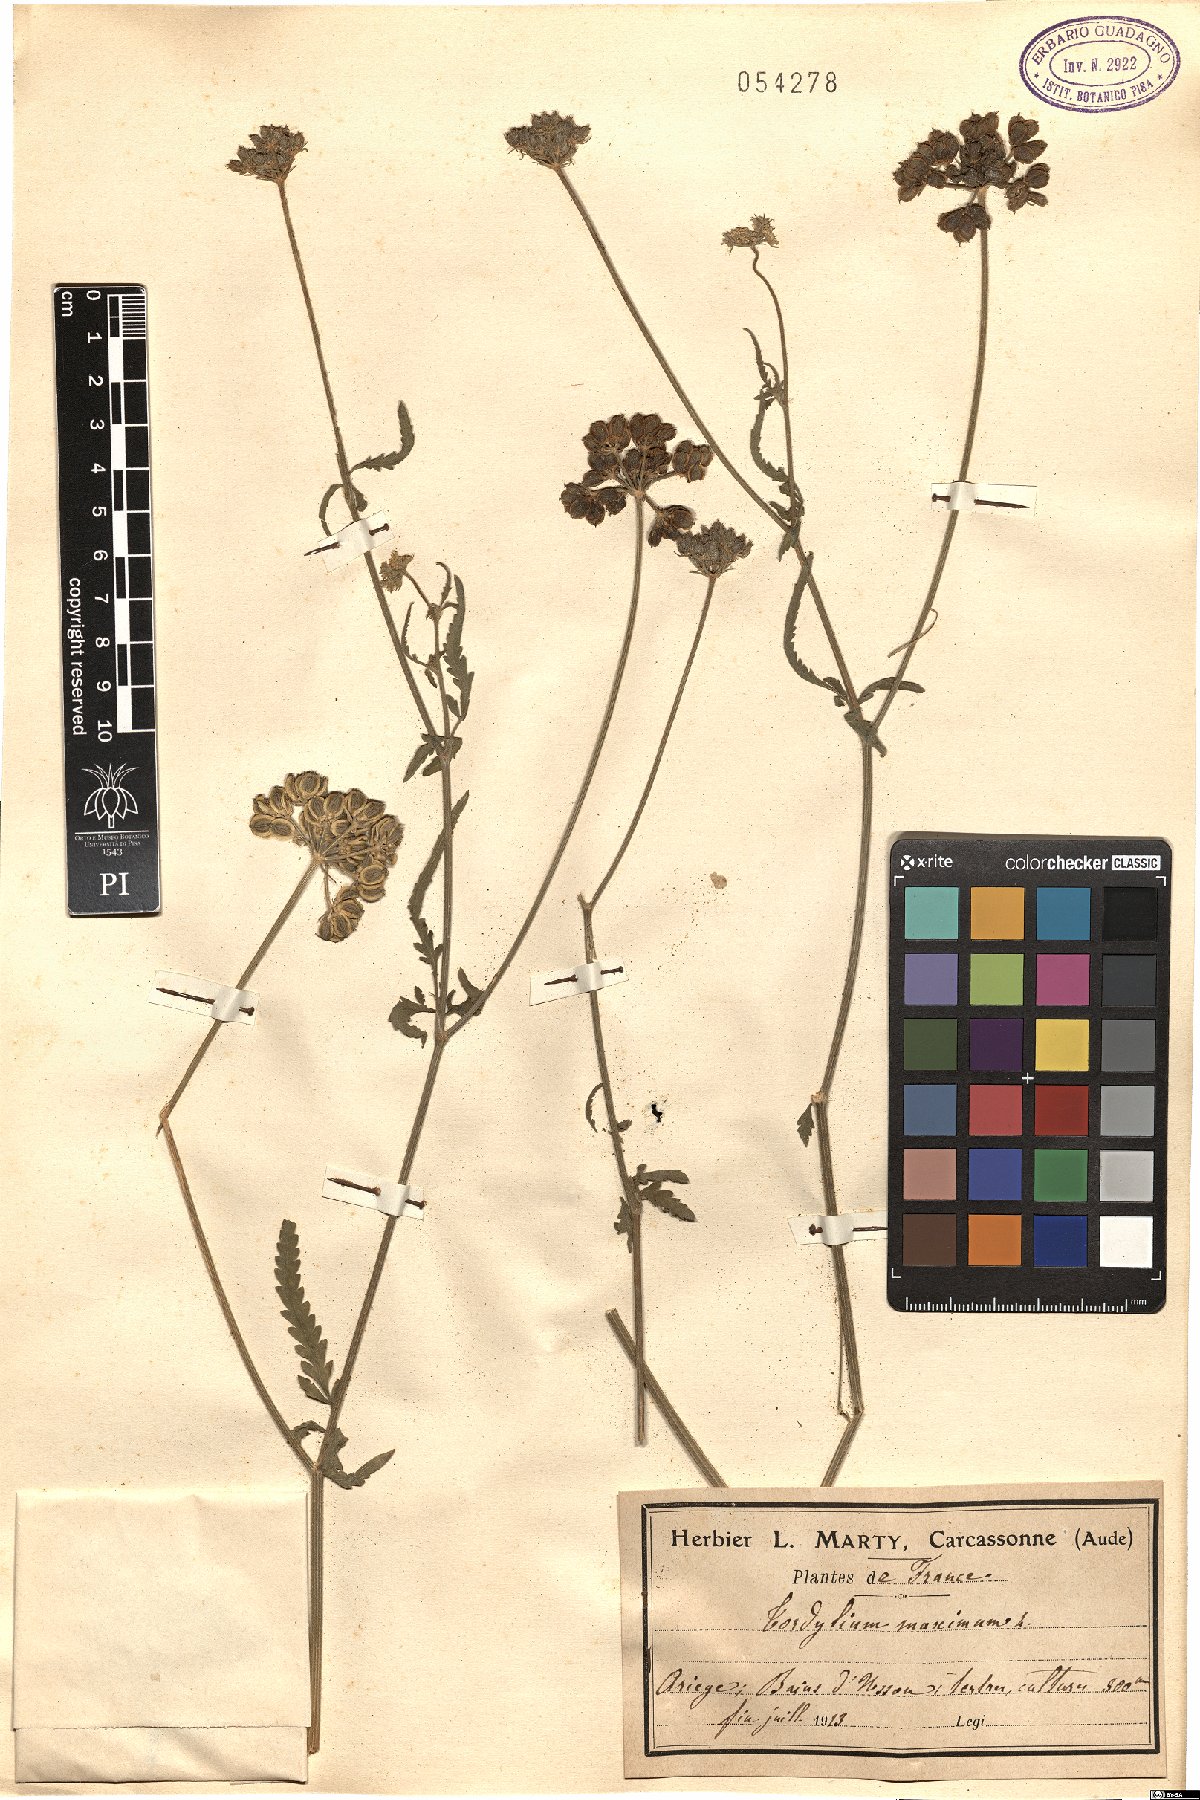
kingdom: Plantae
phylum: Tracheophyta
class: Magnoliopsida
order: Apiales
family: Apiaceae
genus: Tordylium
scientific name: Tordylium maximum
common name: Hartwort
